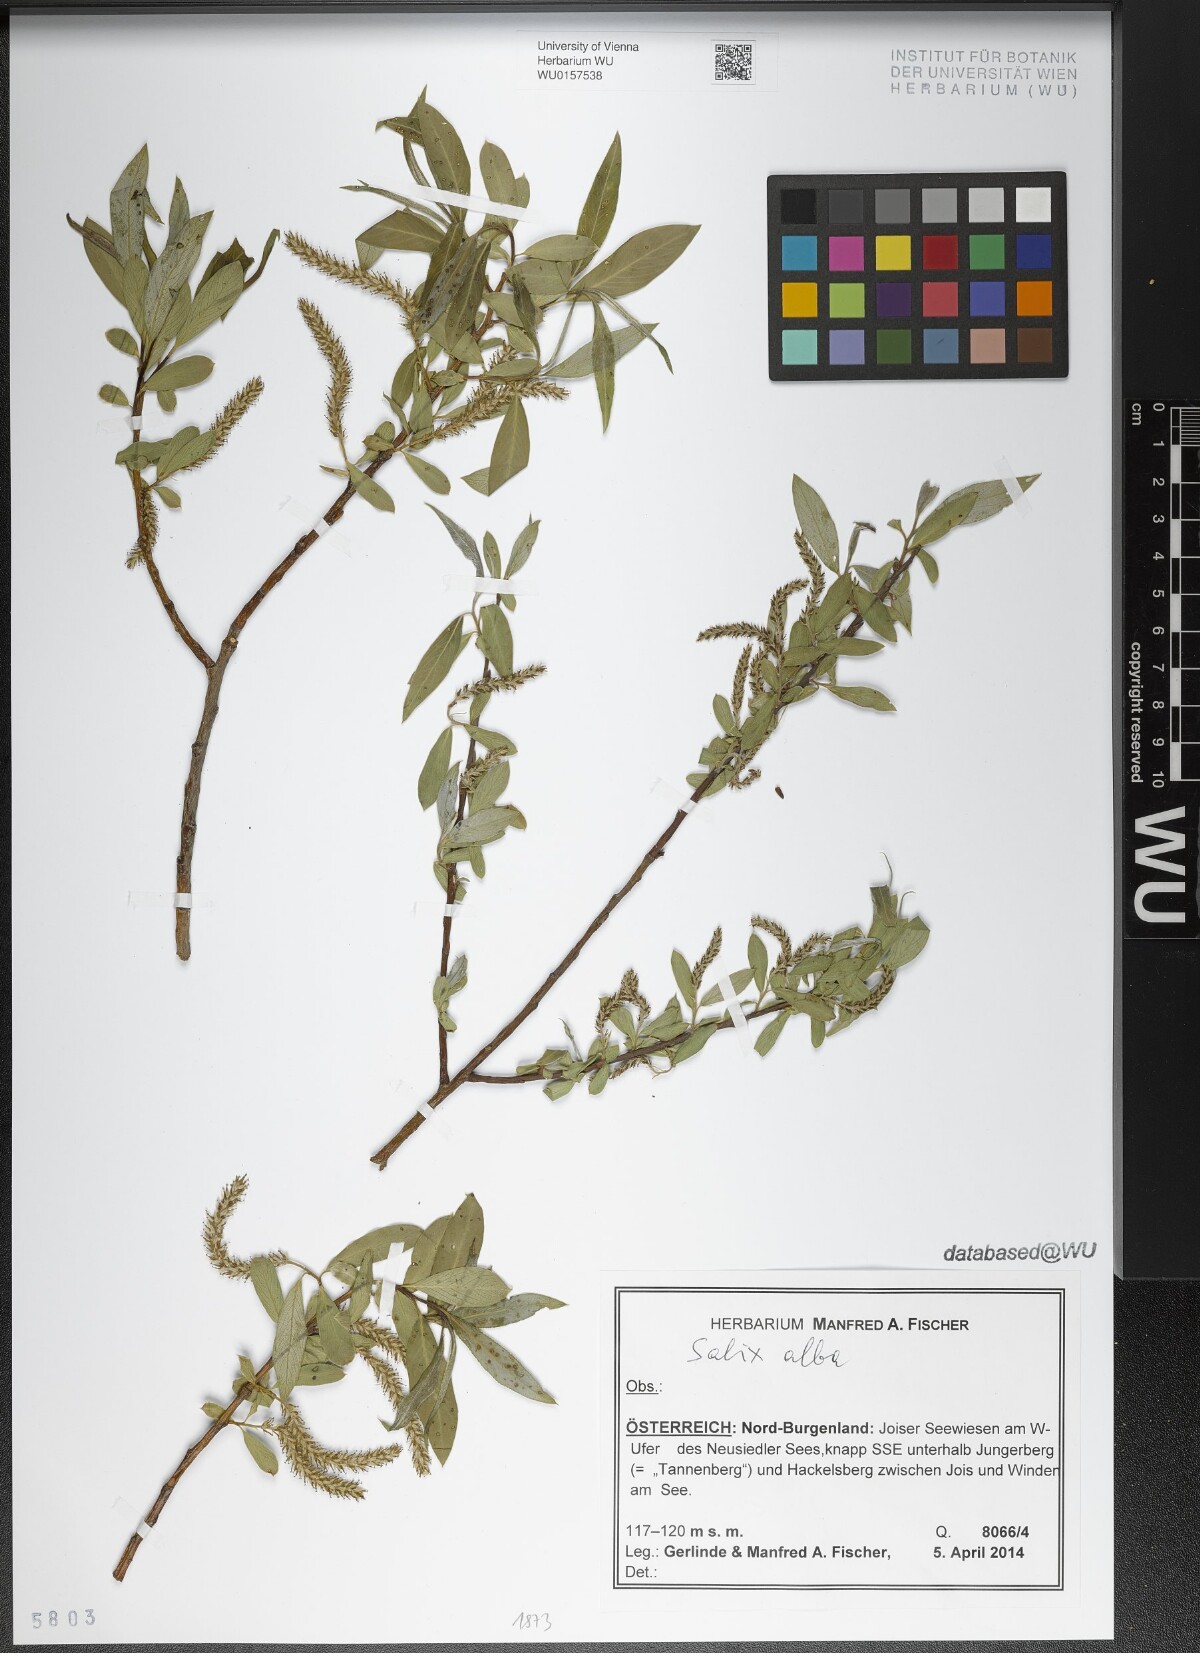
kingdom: Plantae
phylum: Tracheophyta
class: Magnoliopsida
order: Malpighiales
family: Salicaceae
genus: Salix
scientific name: Salix alba
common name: White willow
